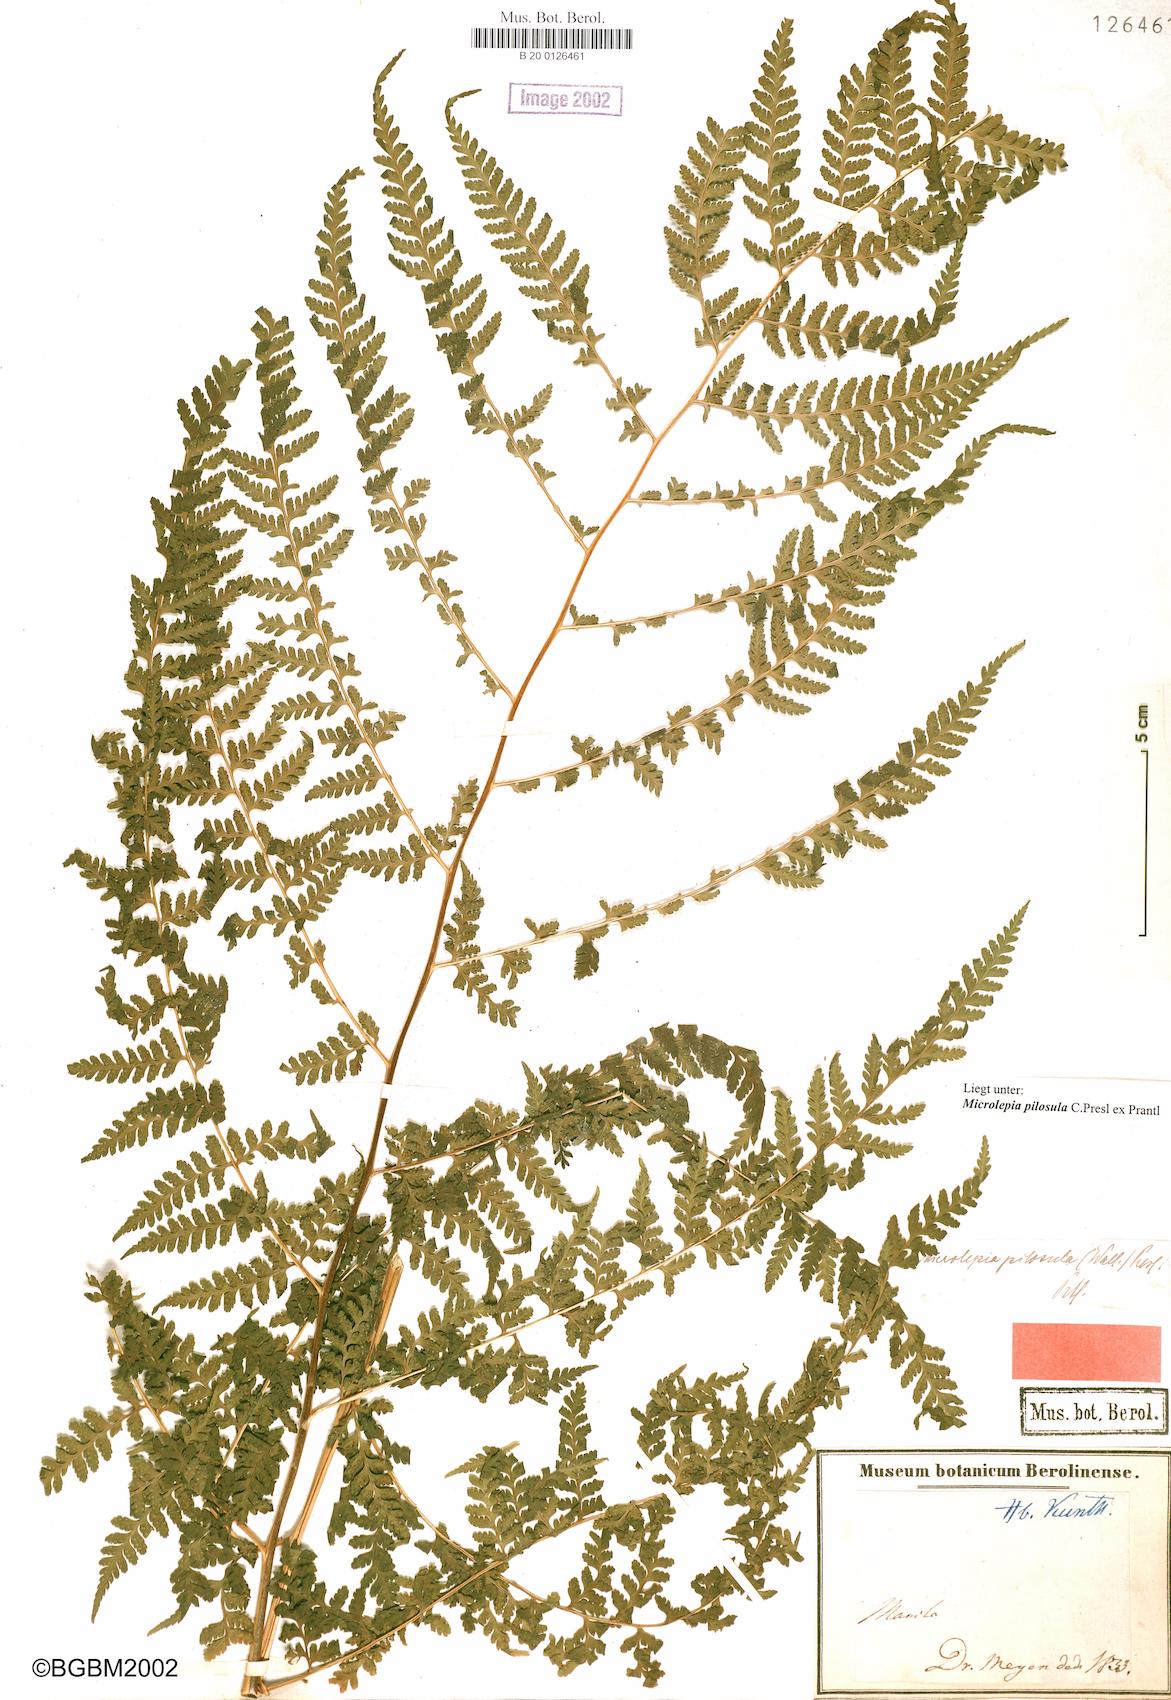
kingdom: Plantae
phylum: Tracheophyta
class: Polypodiopsida
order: Polypodiales
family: Dennstaedtiaceae
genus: Microlepia
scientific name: Microlepia speluncae
